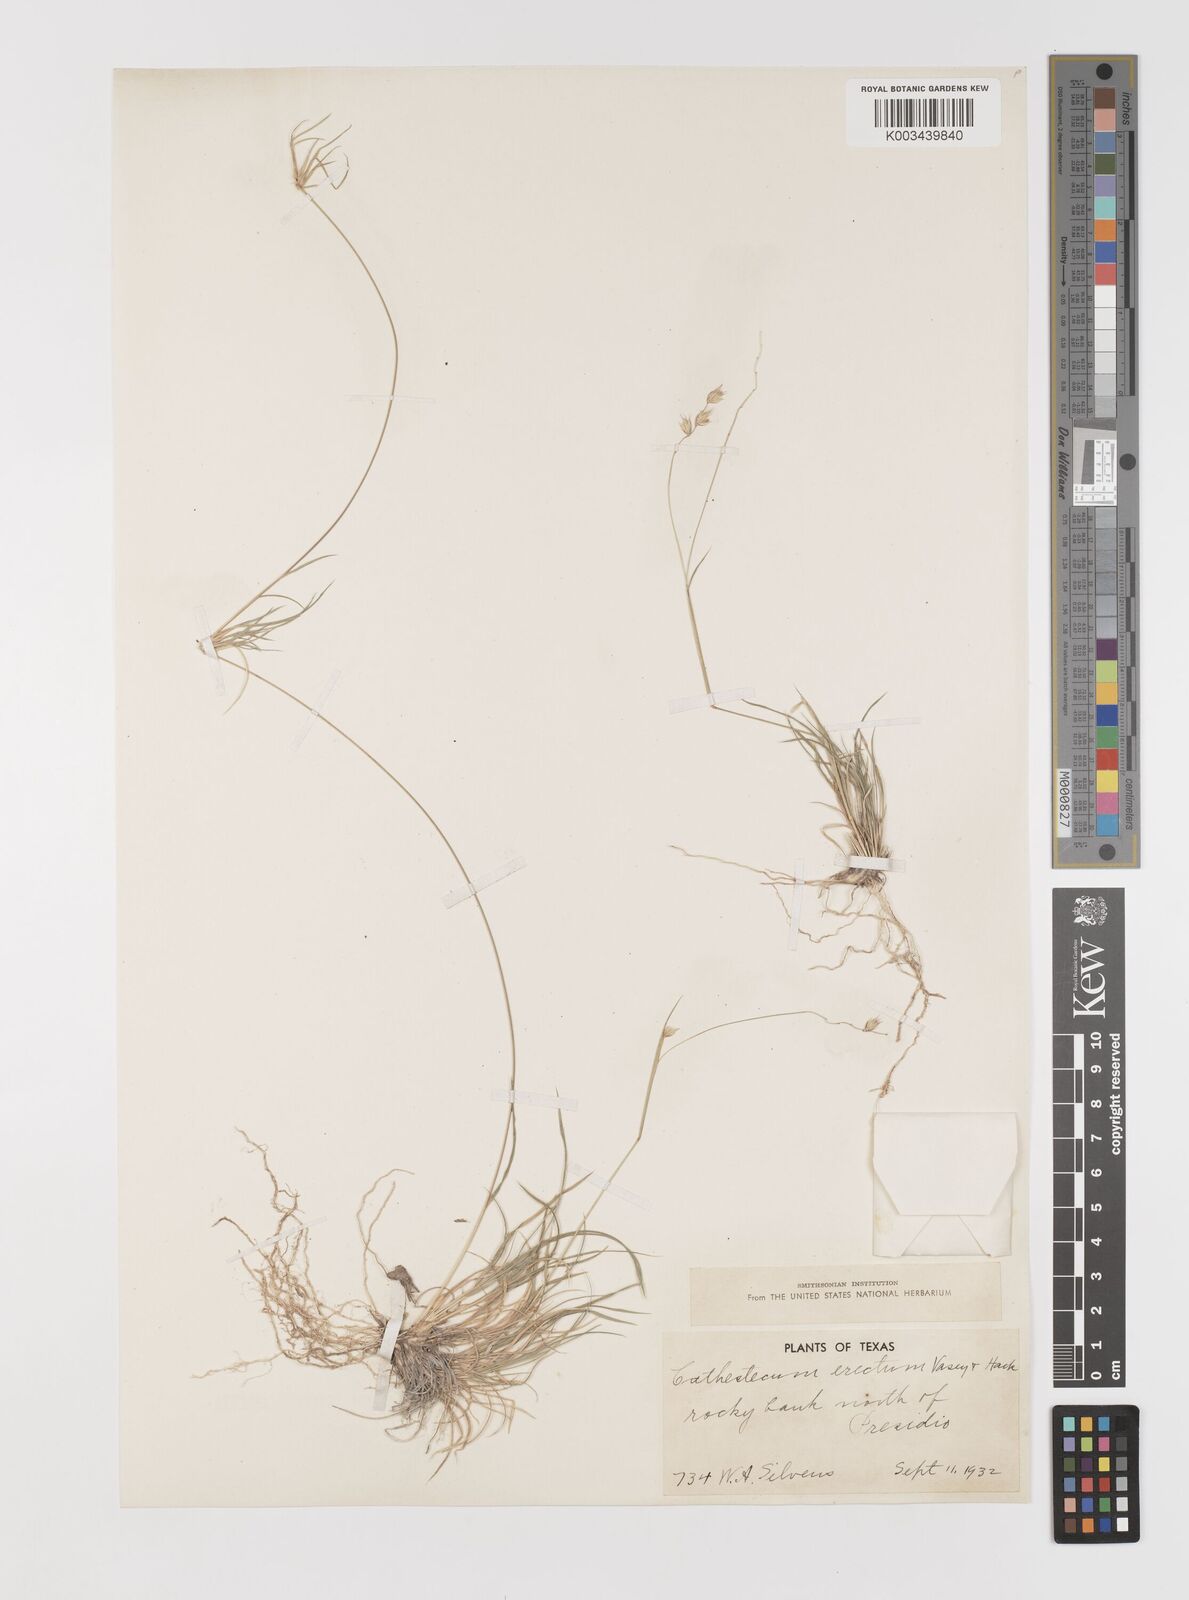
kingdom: Plantae
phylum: Tracheophyta
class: Liliopsida
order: Poales
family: Poaceae
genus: Bouteloua
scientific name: Bouteloua erecta
